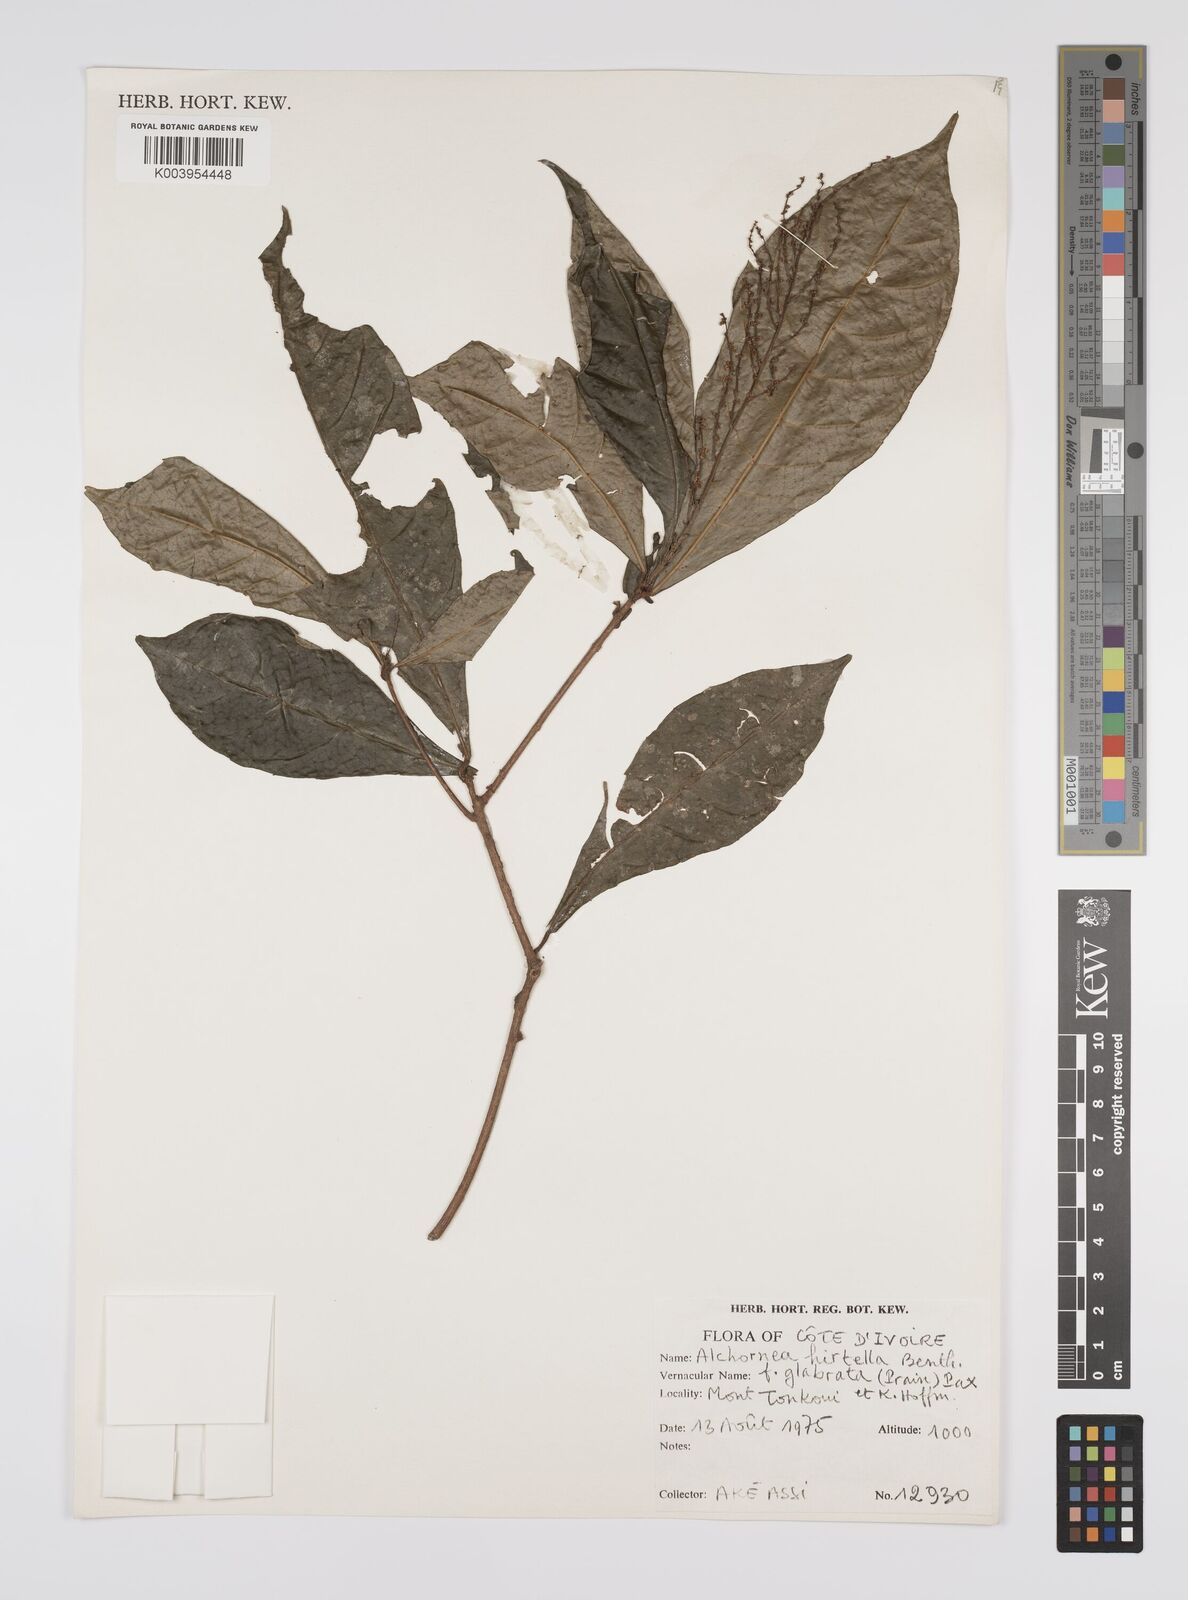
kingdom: Plantae
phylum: Tracheophyta
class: Magnoliopsida
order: Malpighiales
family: Euphorbiaceae
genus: Alchornea
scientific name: Alchornea hirtella
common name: Forest bead-string
